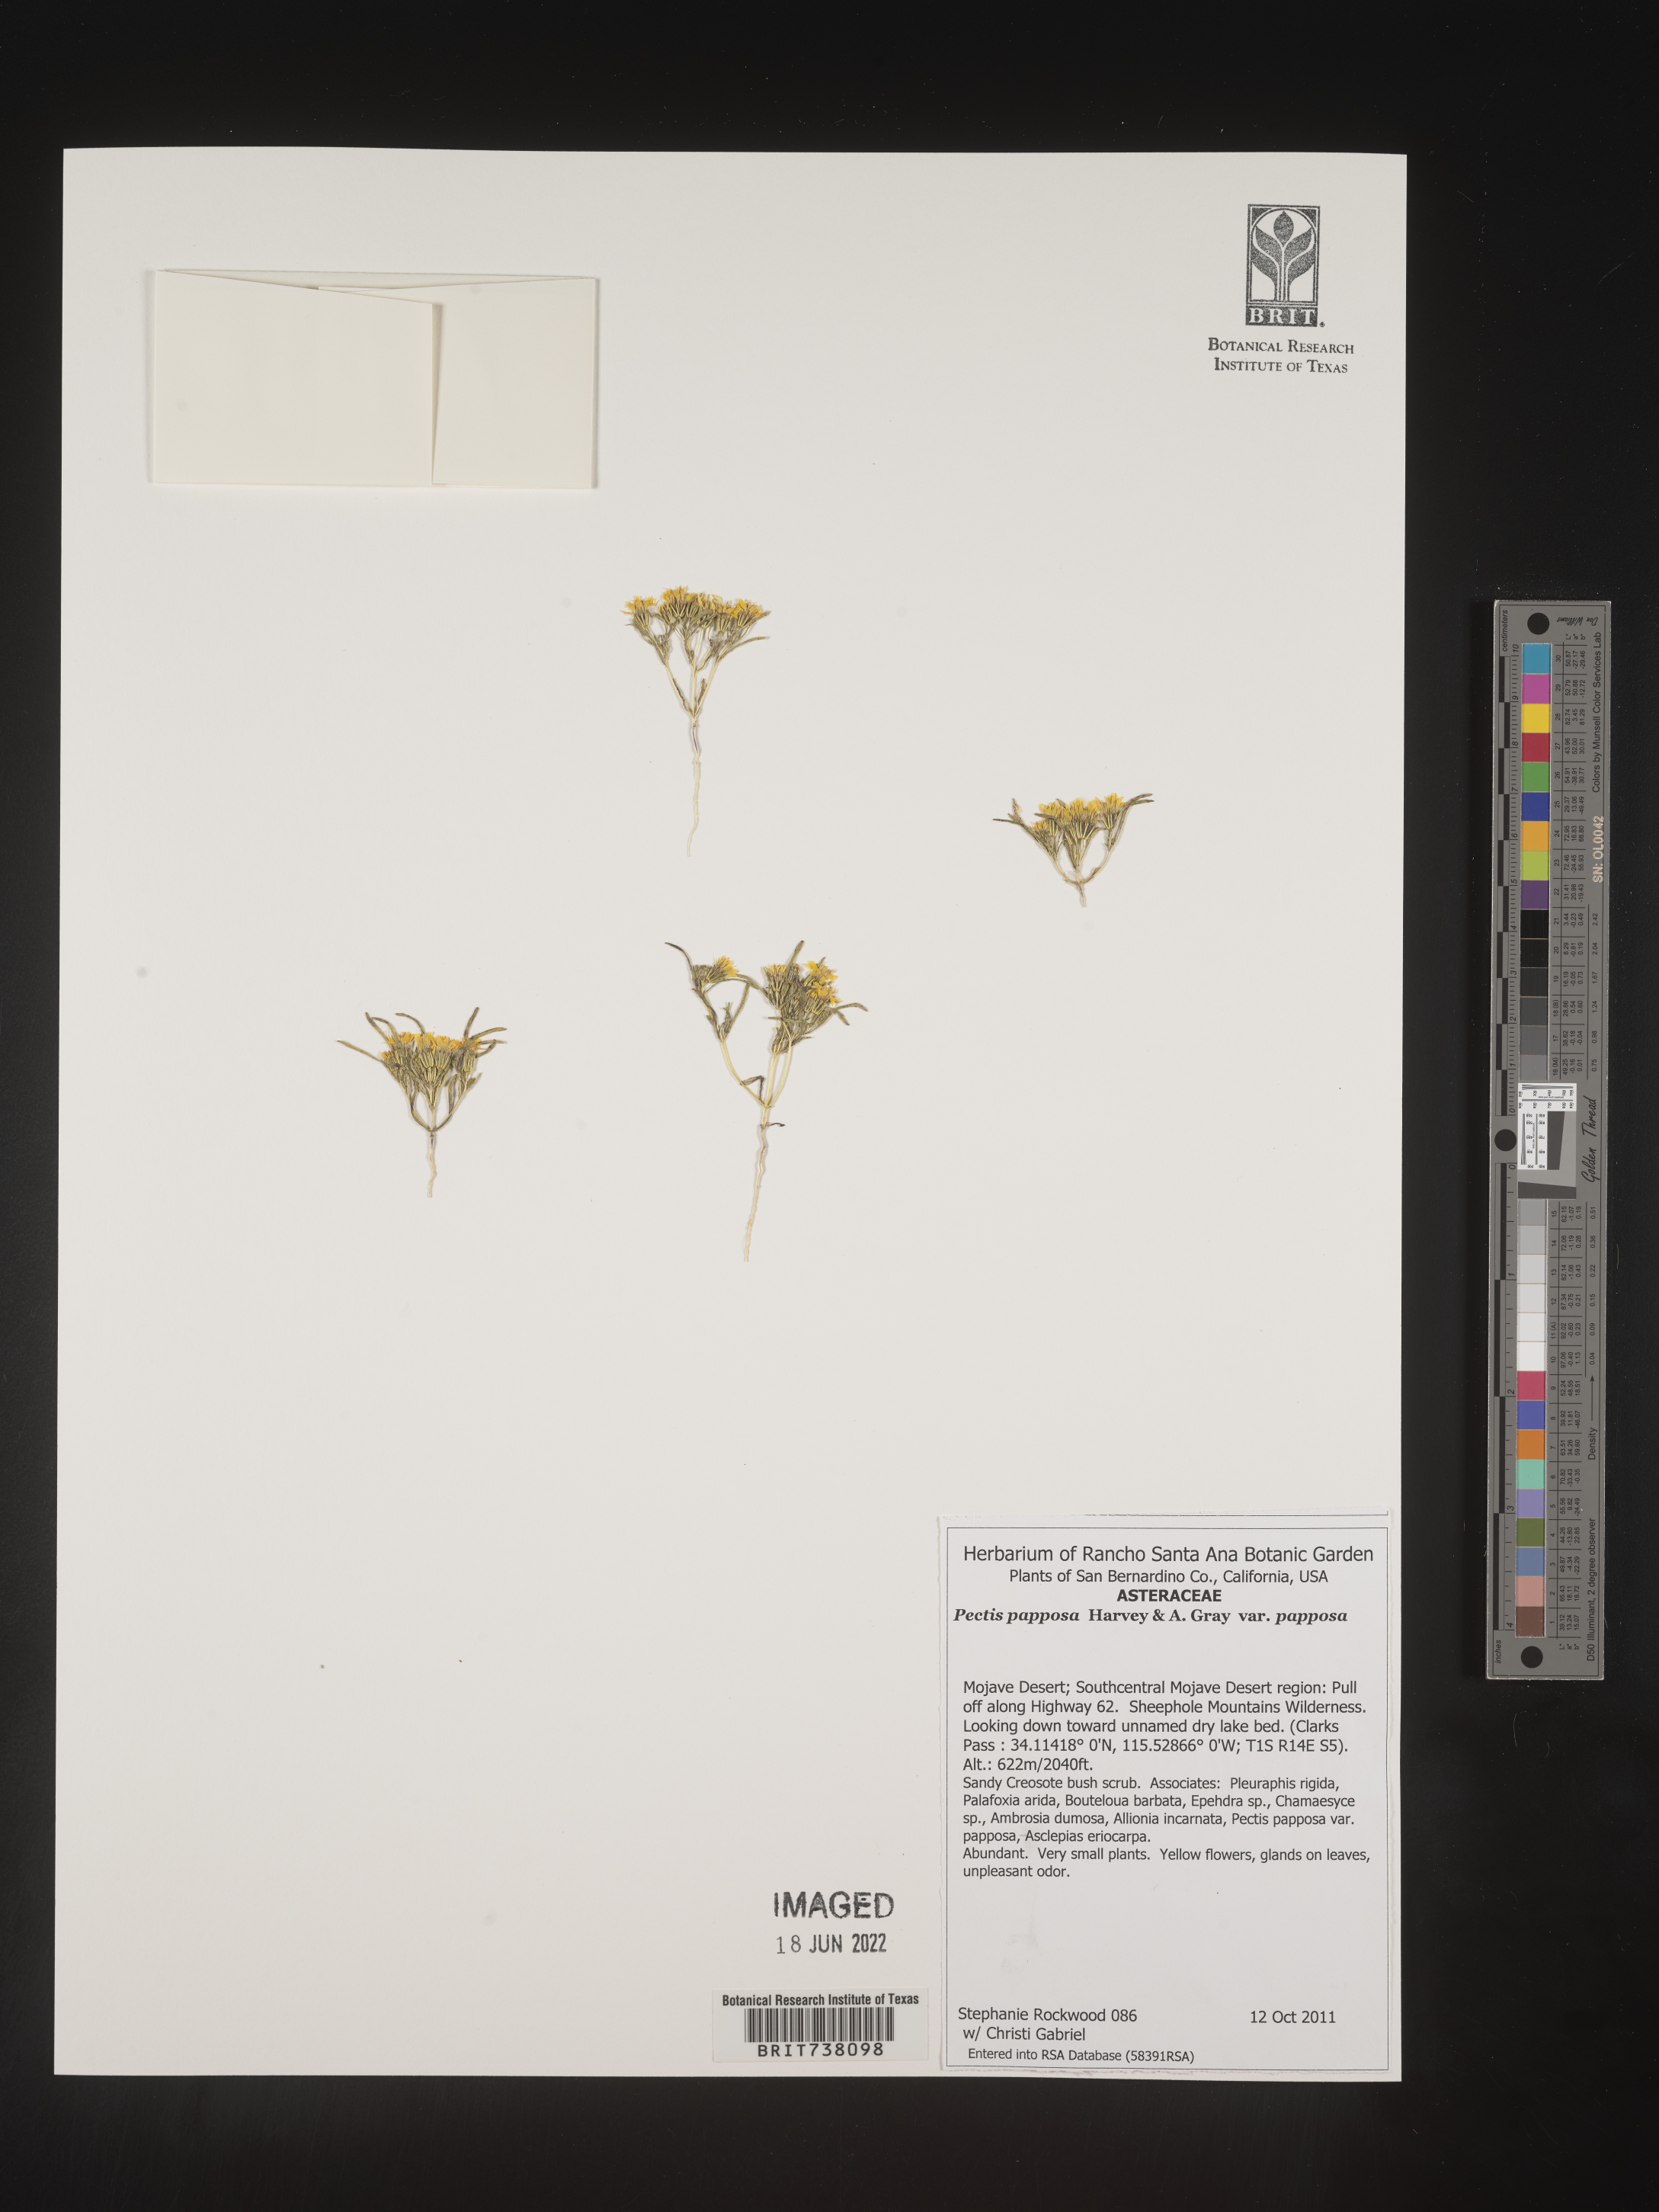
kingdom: Plantae
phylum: Tracheophyta
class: Magnoliopsida
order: Asterales
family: Asteraceae
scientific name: Asteraceae
